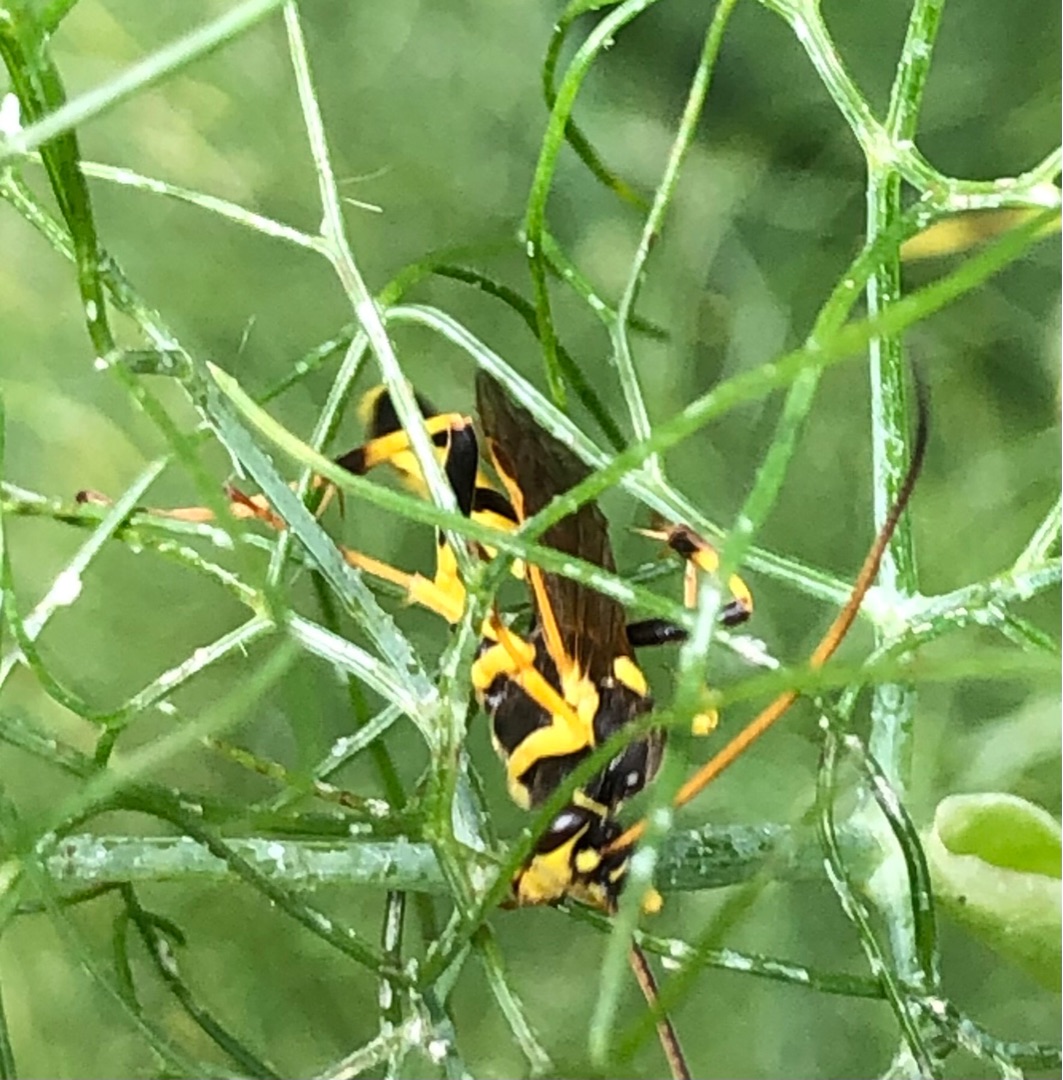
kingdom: Animalia
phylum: Arthropoda
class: Insecta
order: Hymenoptera
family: Ichneumonidae
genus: Amblyteles
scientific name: Amblyteles armatorius
